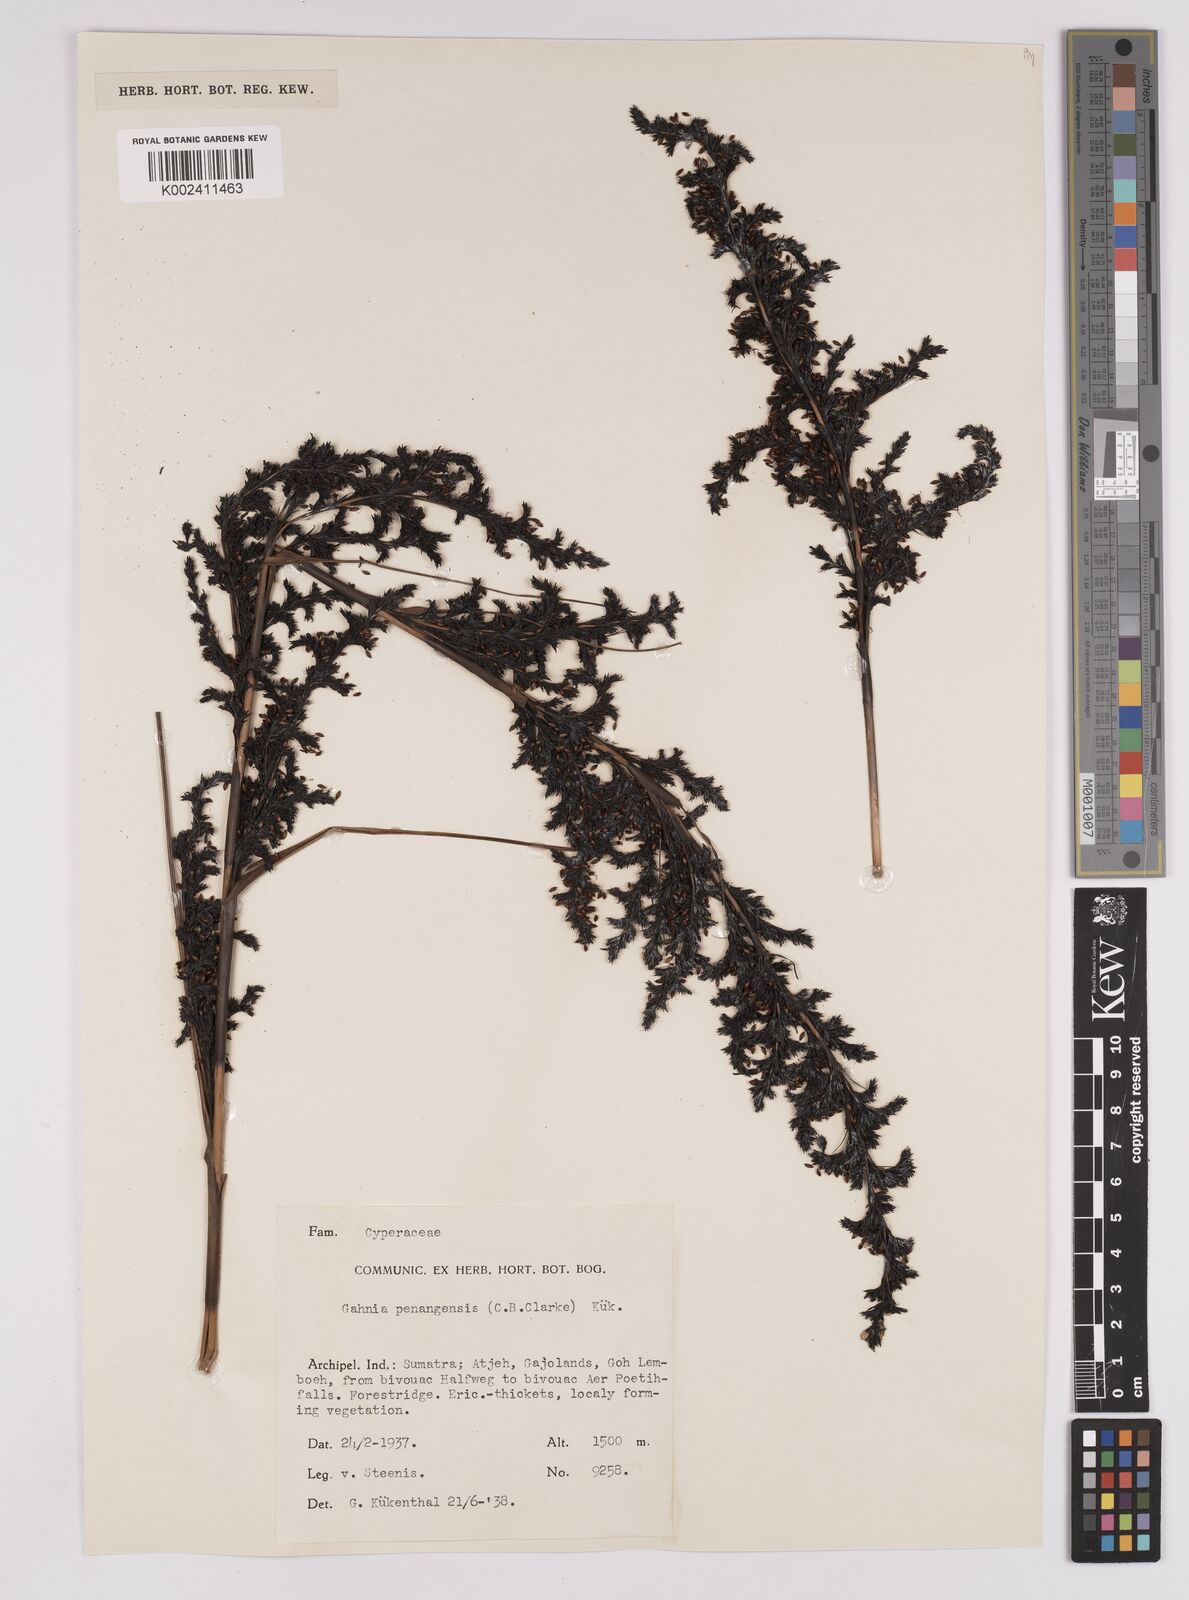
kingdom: Plantae
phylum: Tracheophyta
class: Liliopsida
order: Poales
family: Cyperaceae
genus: Gahnia
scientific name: Gahnia baniensis
